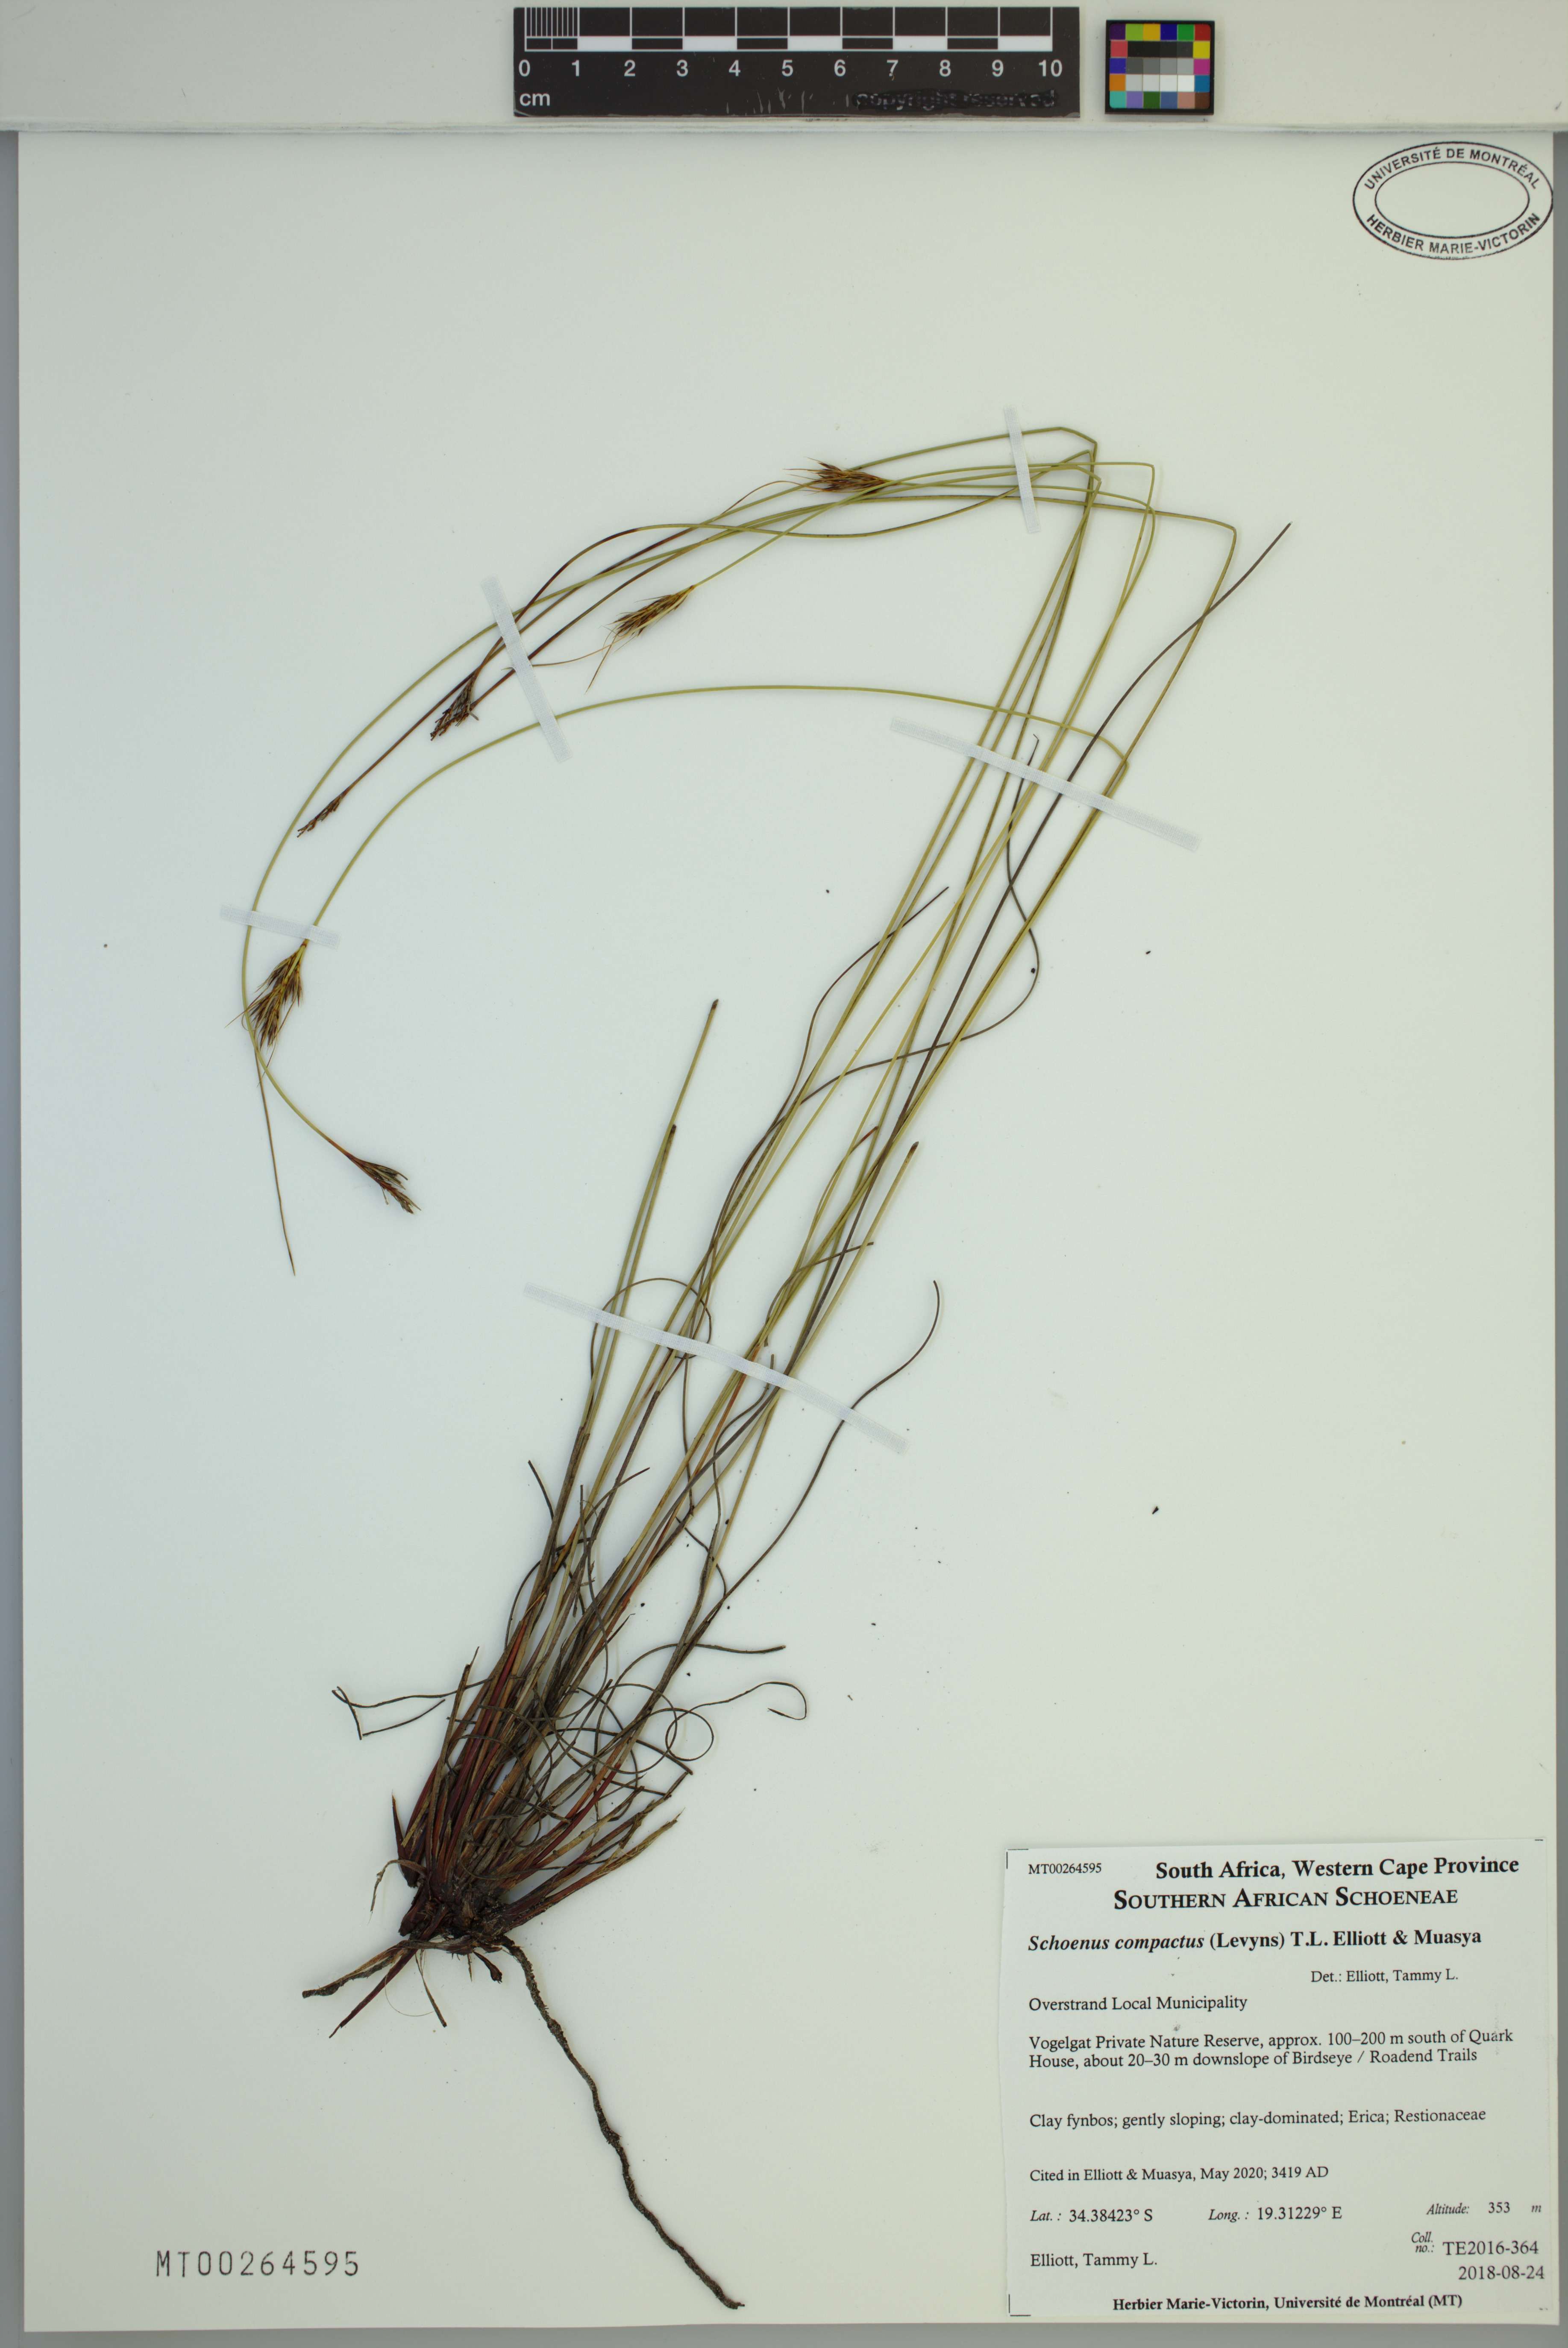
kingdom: Plantae
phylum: Tracheophyta
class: Liliopsida
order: Poales
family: Cyperaceae
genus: Schoenus
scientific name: Schoenus compactus
